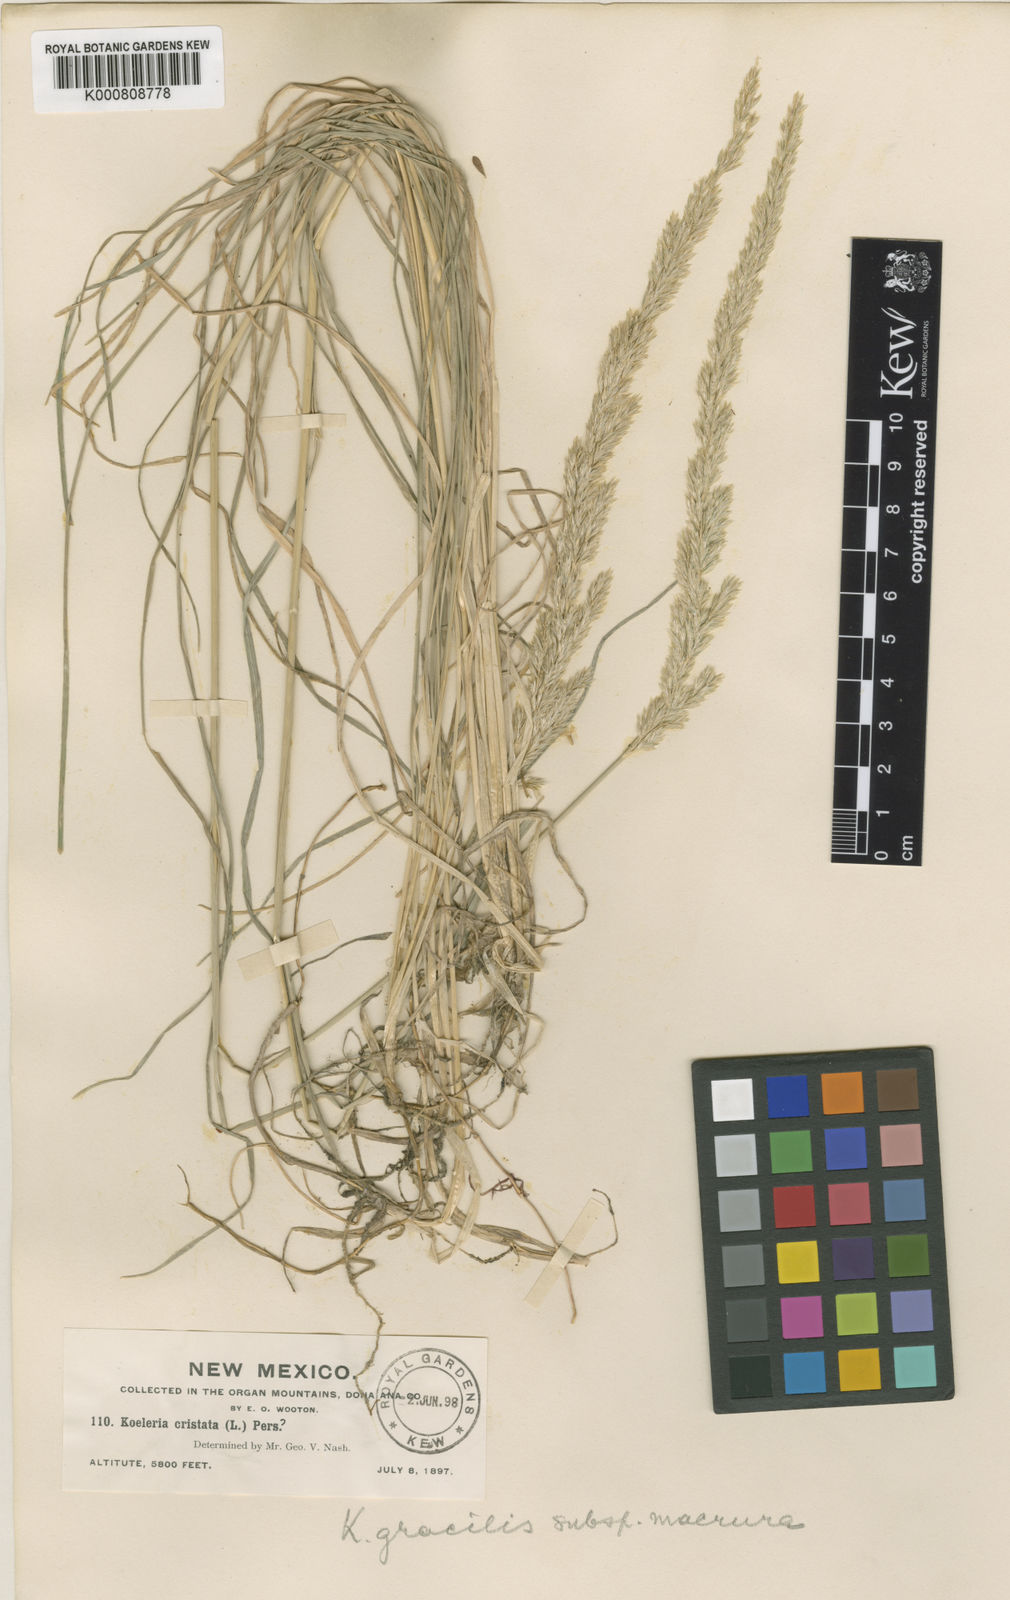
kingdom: Plantae
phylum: Tracheophyta
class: Liliopsida
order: Poales
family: Poaceae
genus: Koeleria
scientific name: Koeleria macrantha
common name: Crested hair-grass
